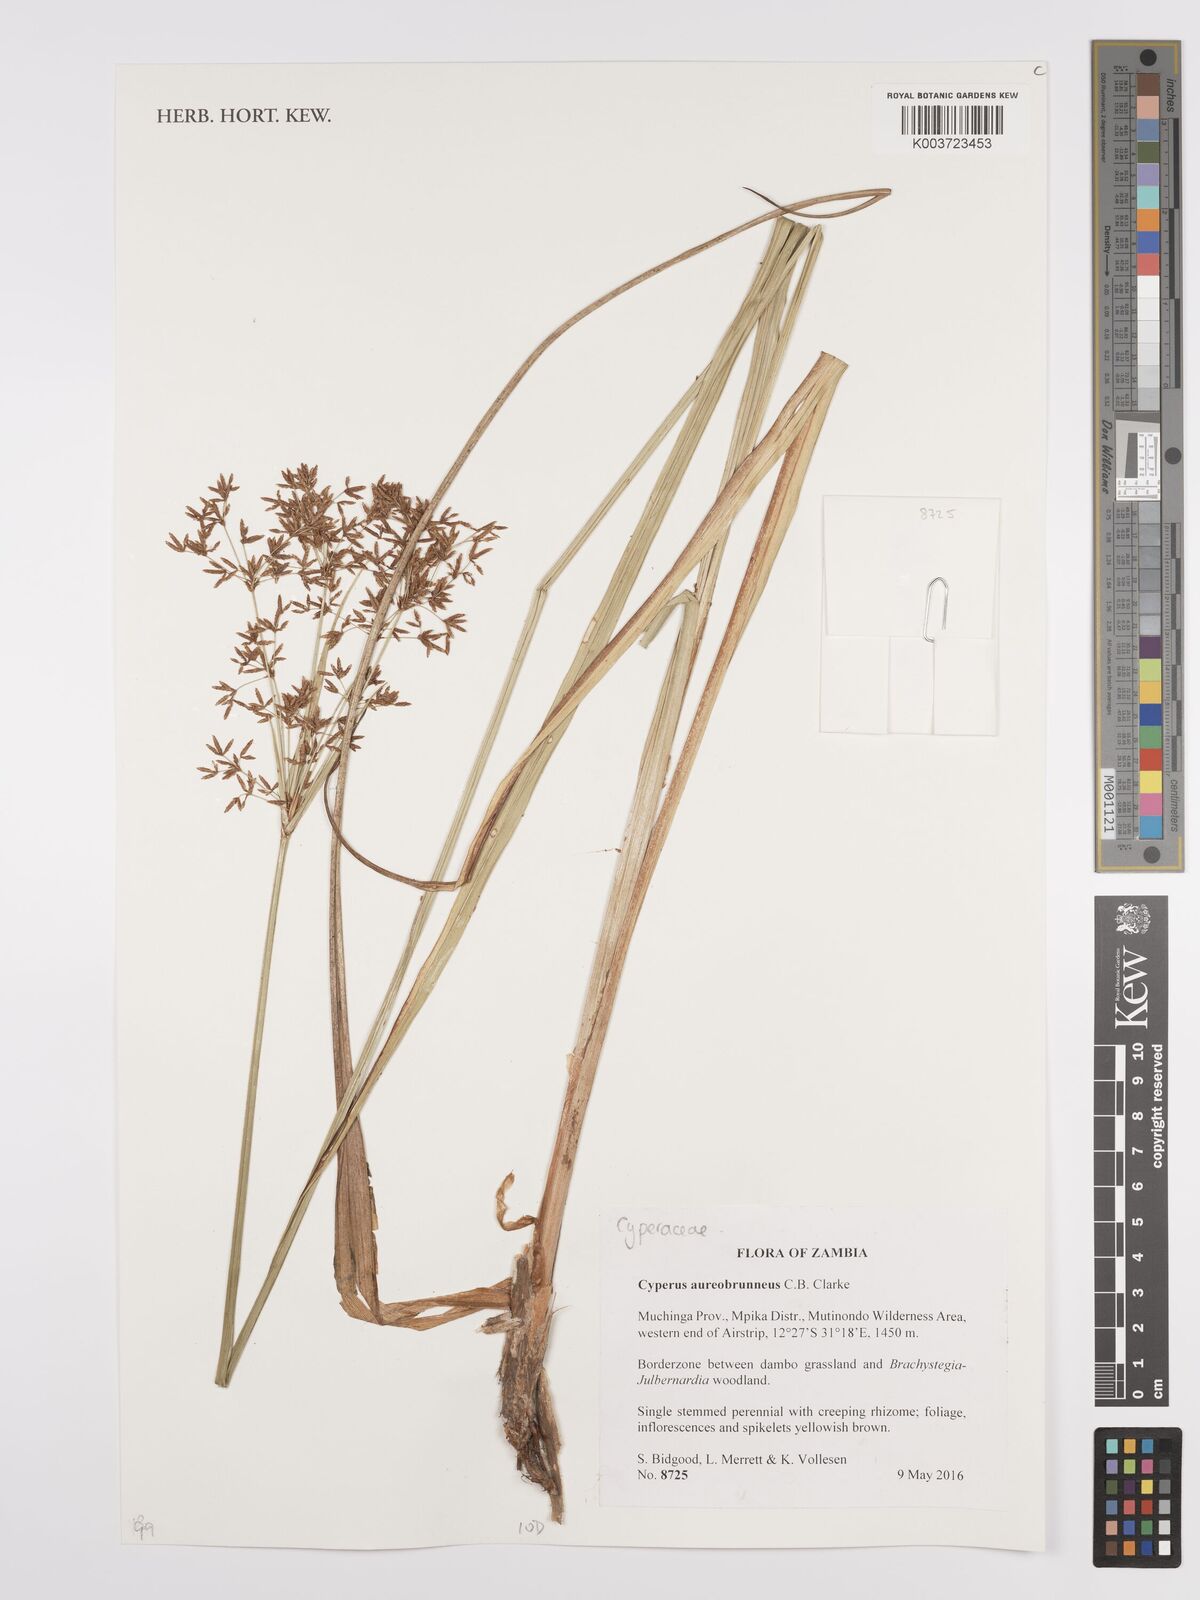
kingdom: Plantae
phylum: Tracheophyta
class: Liliopsida
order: Poales
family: Cyperaceae
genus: Cyperus
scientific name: Cyperus aureobrunneus
